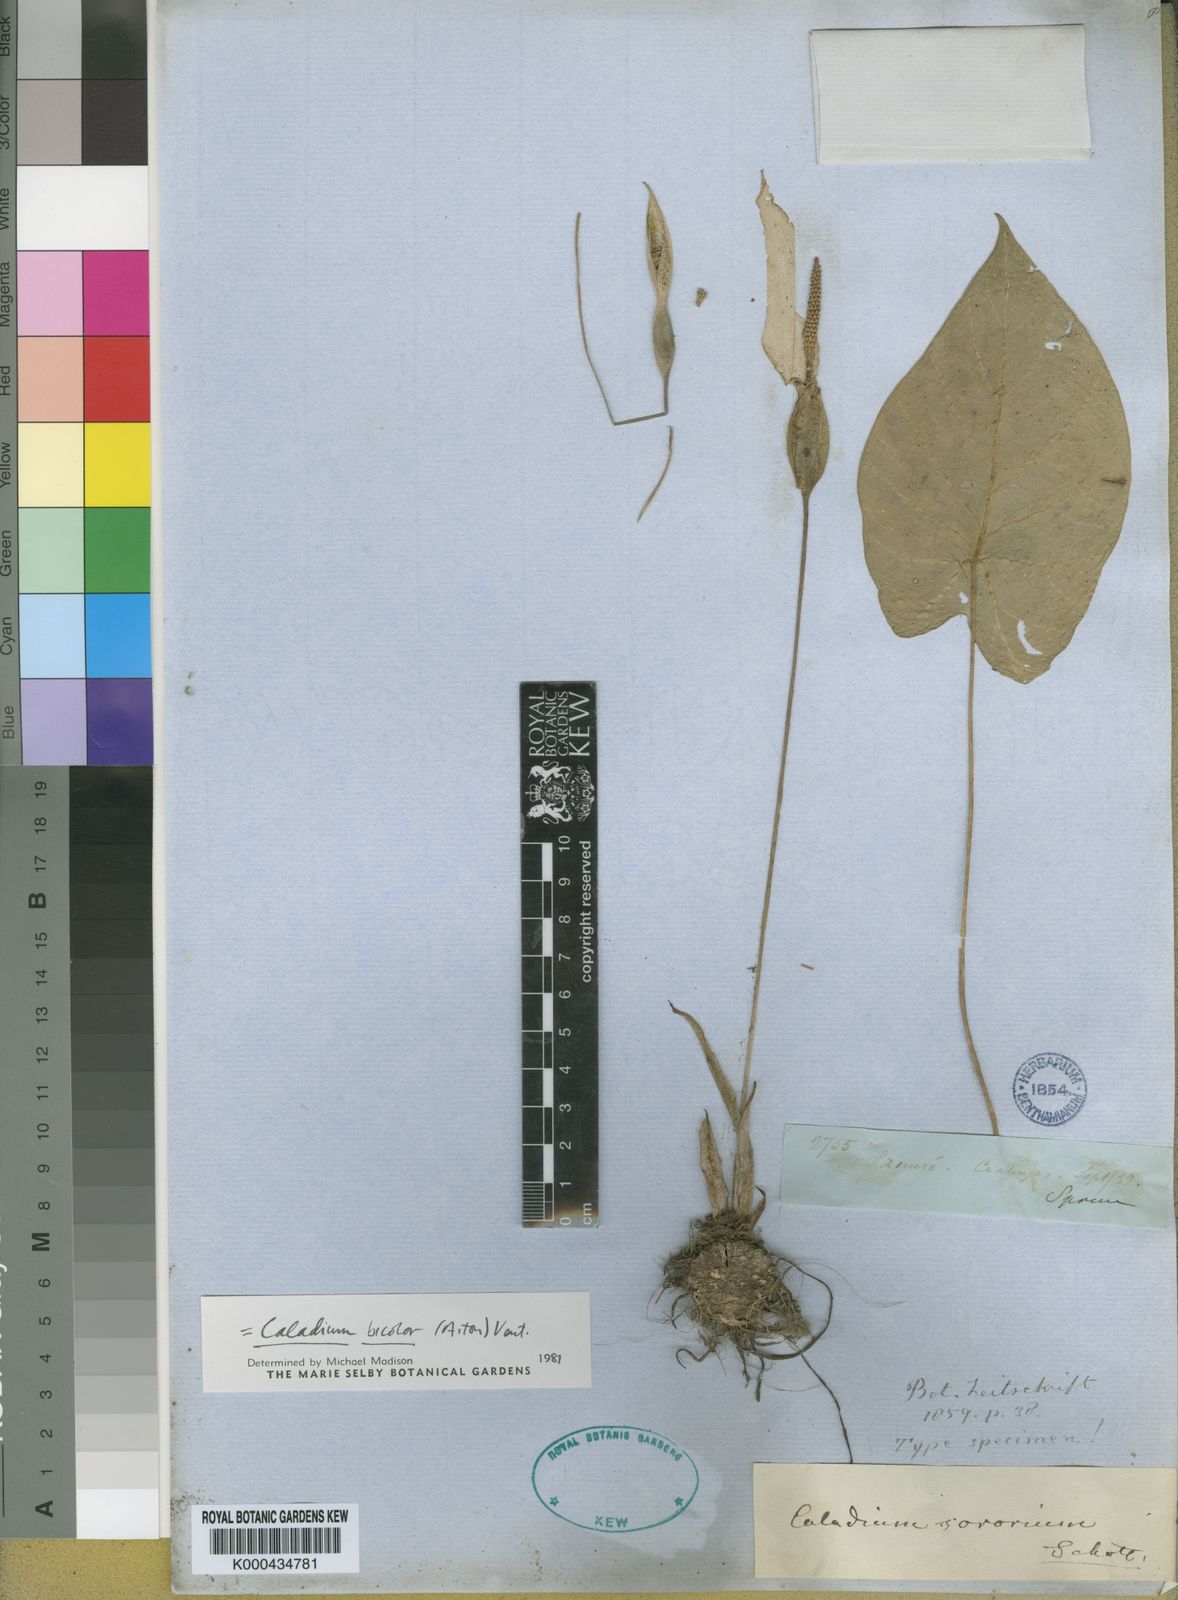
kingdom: Plantae
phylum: Tracheophyta
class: Liliopsida
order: Alismatales
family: Araceae
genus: Caladium
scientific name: Caladium bicolor
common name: Artist's pallet
